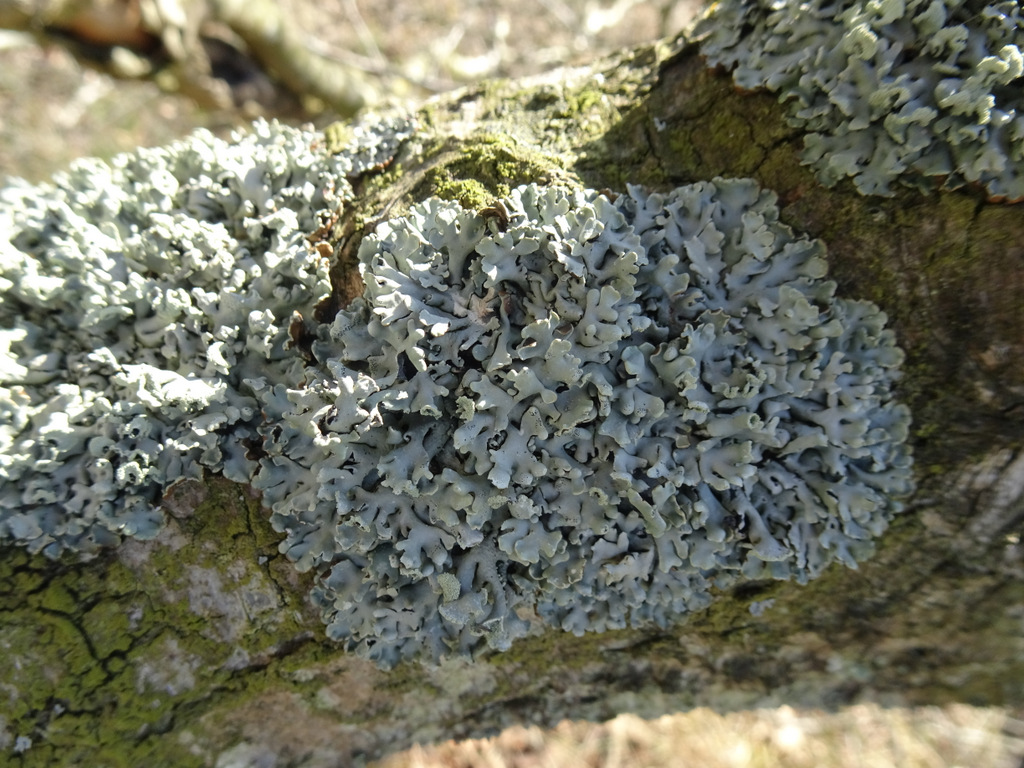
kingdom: Fungi
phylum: Ascomycota
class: Lecanoromycetes
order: Lecanorales
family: Parmeliaceae
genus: Hypogymnia
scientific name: Hypogymnia physodes
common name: almindelig kvistlav
